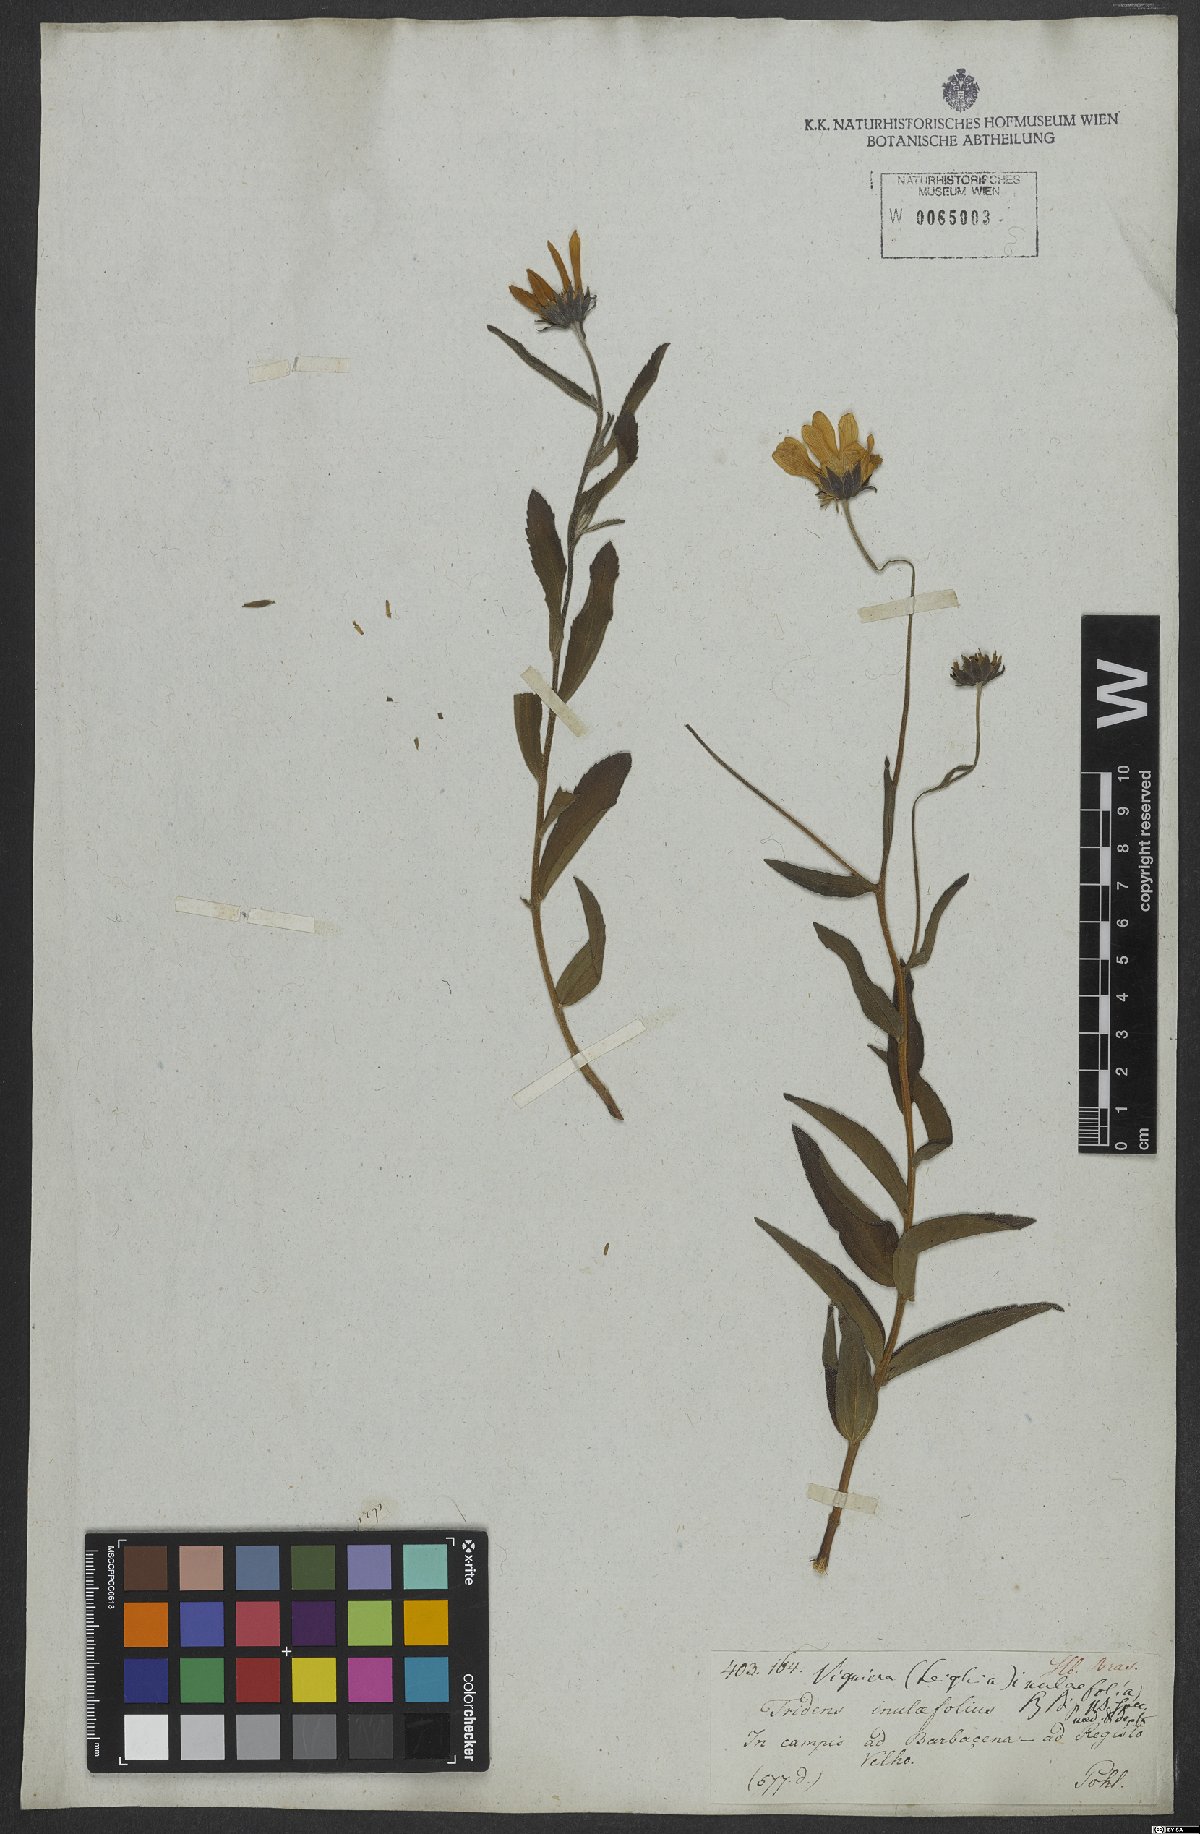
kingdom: Plantae
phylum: Tracheophyta
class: Magnoliopsida
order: Asterales
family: Asteraceae
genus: Aldama
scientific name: Aldama anchusifolia
